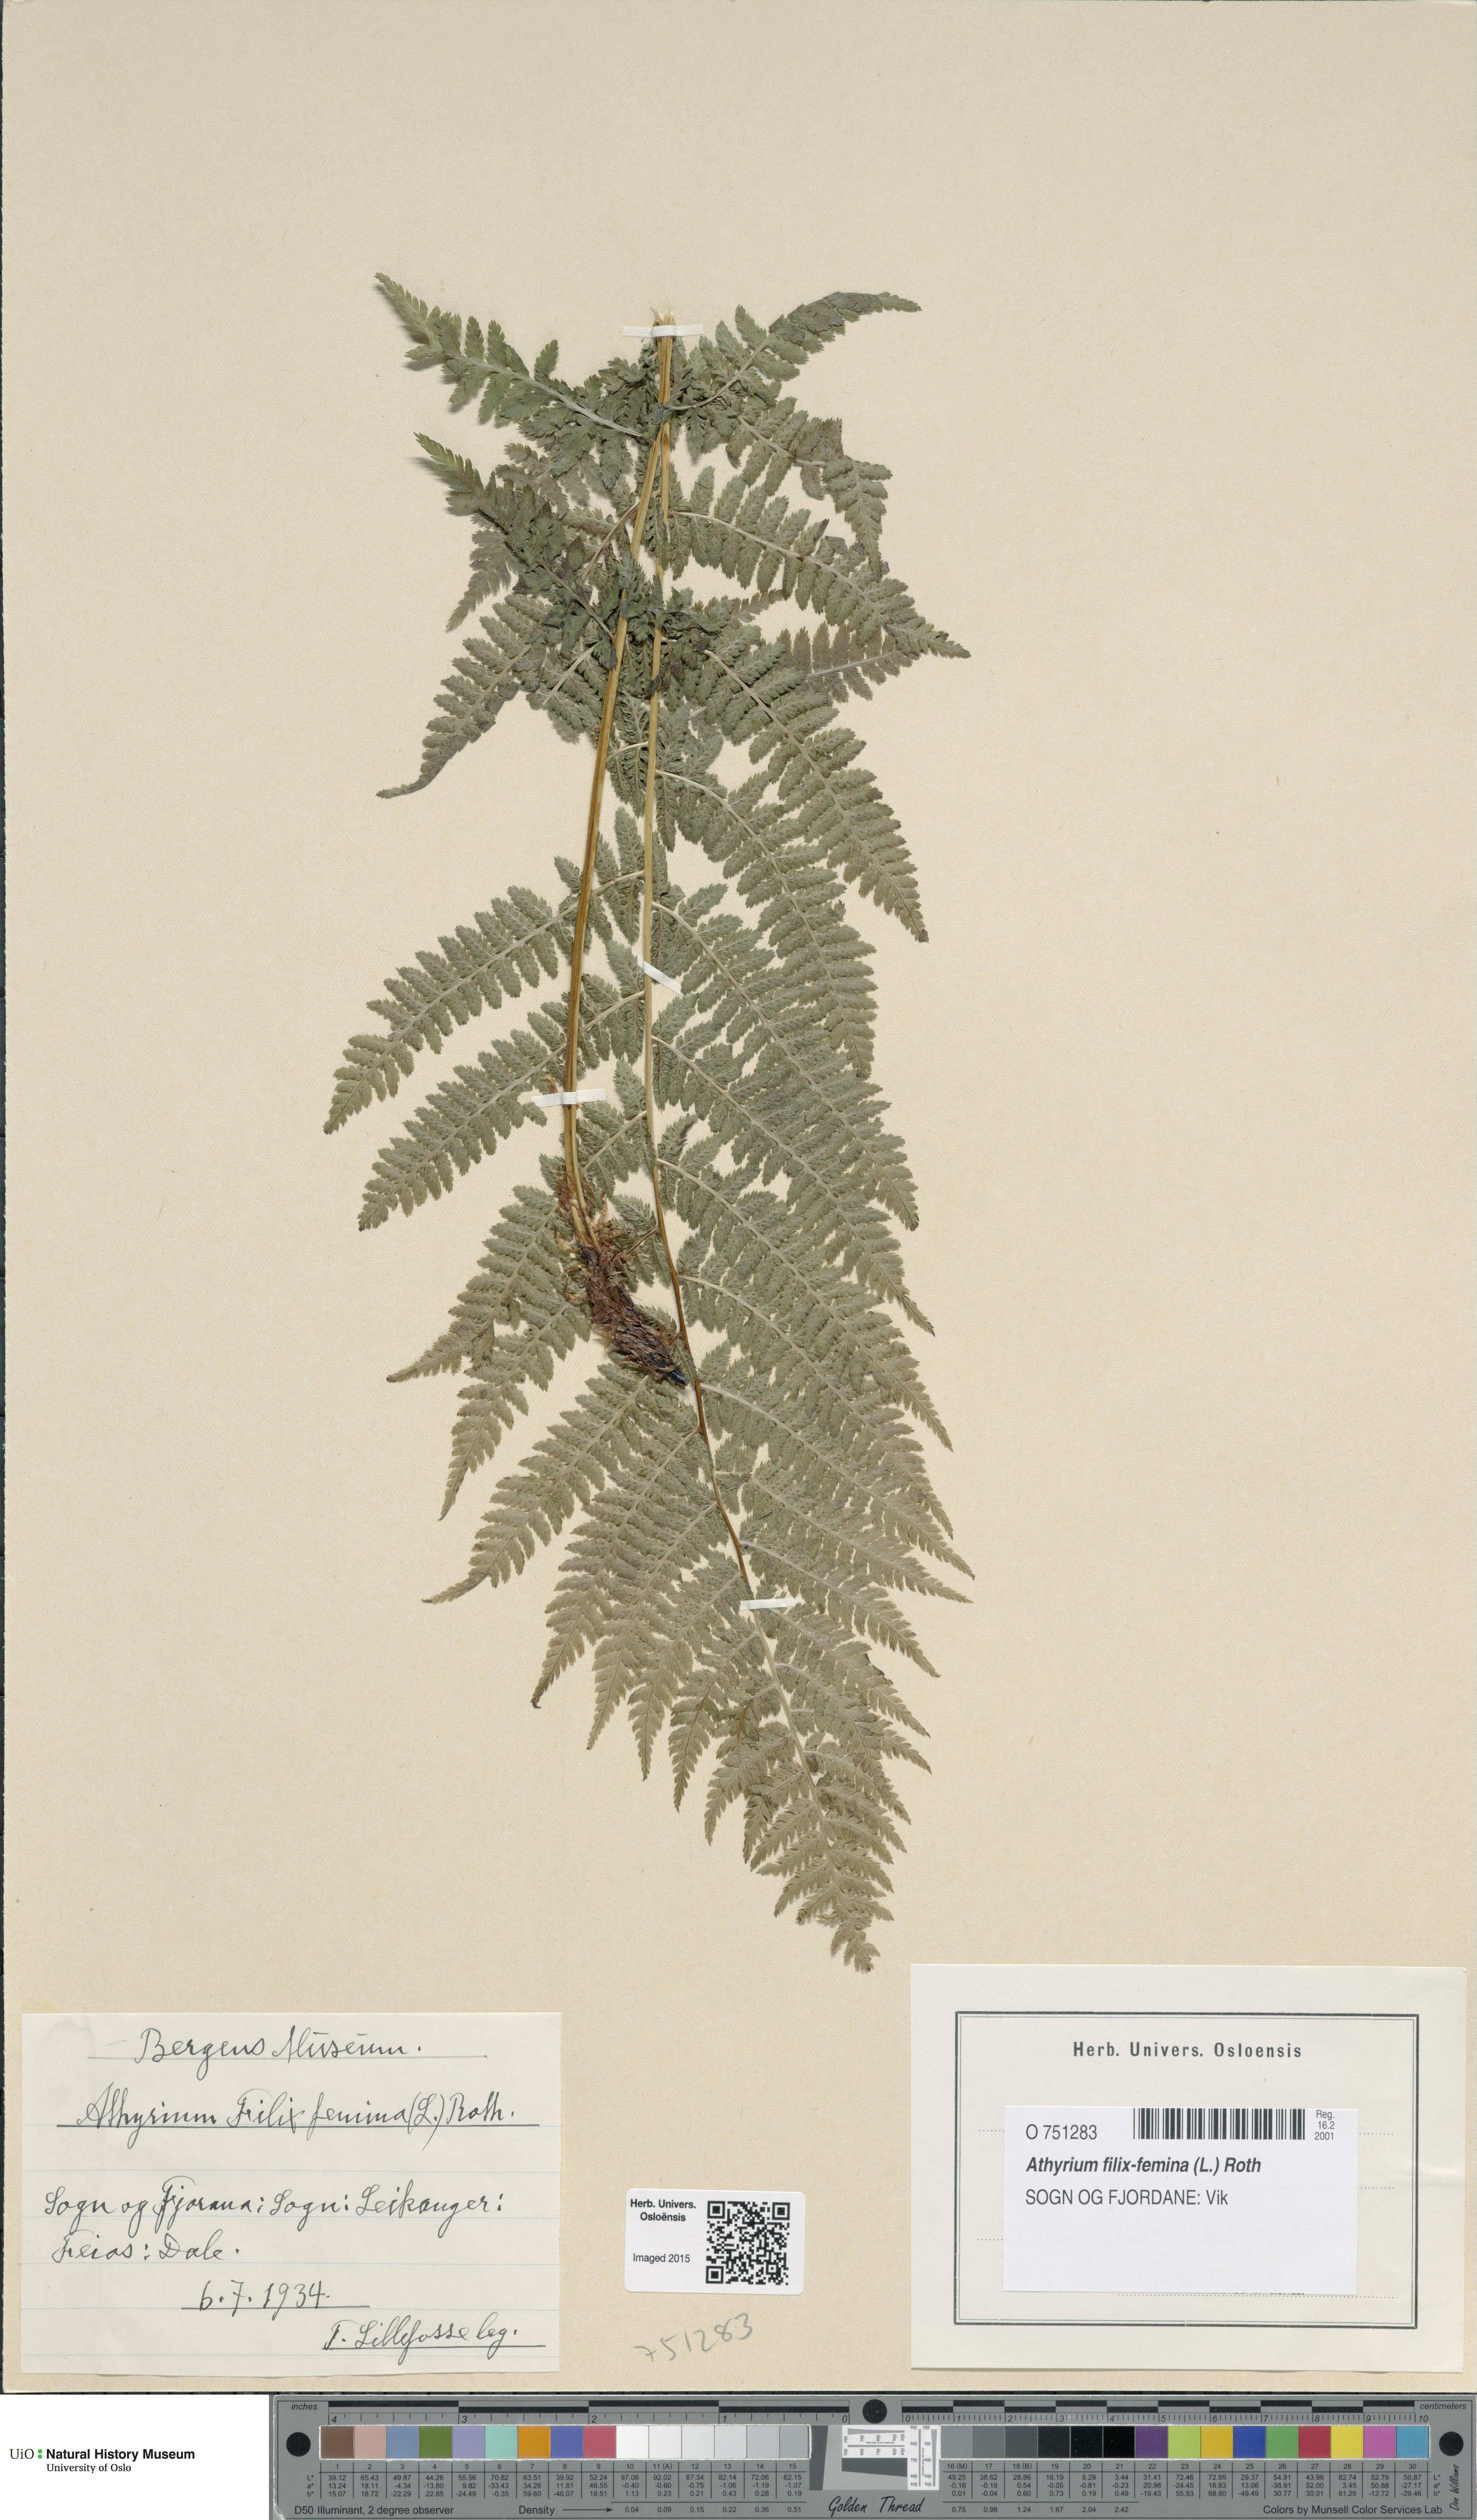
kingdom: Plantae
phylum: Tracheophyta
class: Polypodiopsida
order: Polypodiales
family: Athyriaceae
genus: Athyrium
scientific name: Athyrium filix-femina
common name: Lady fern
